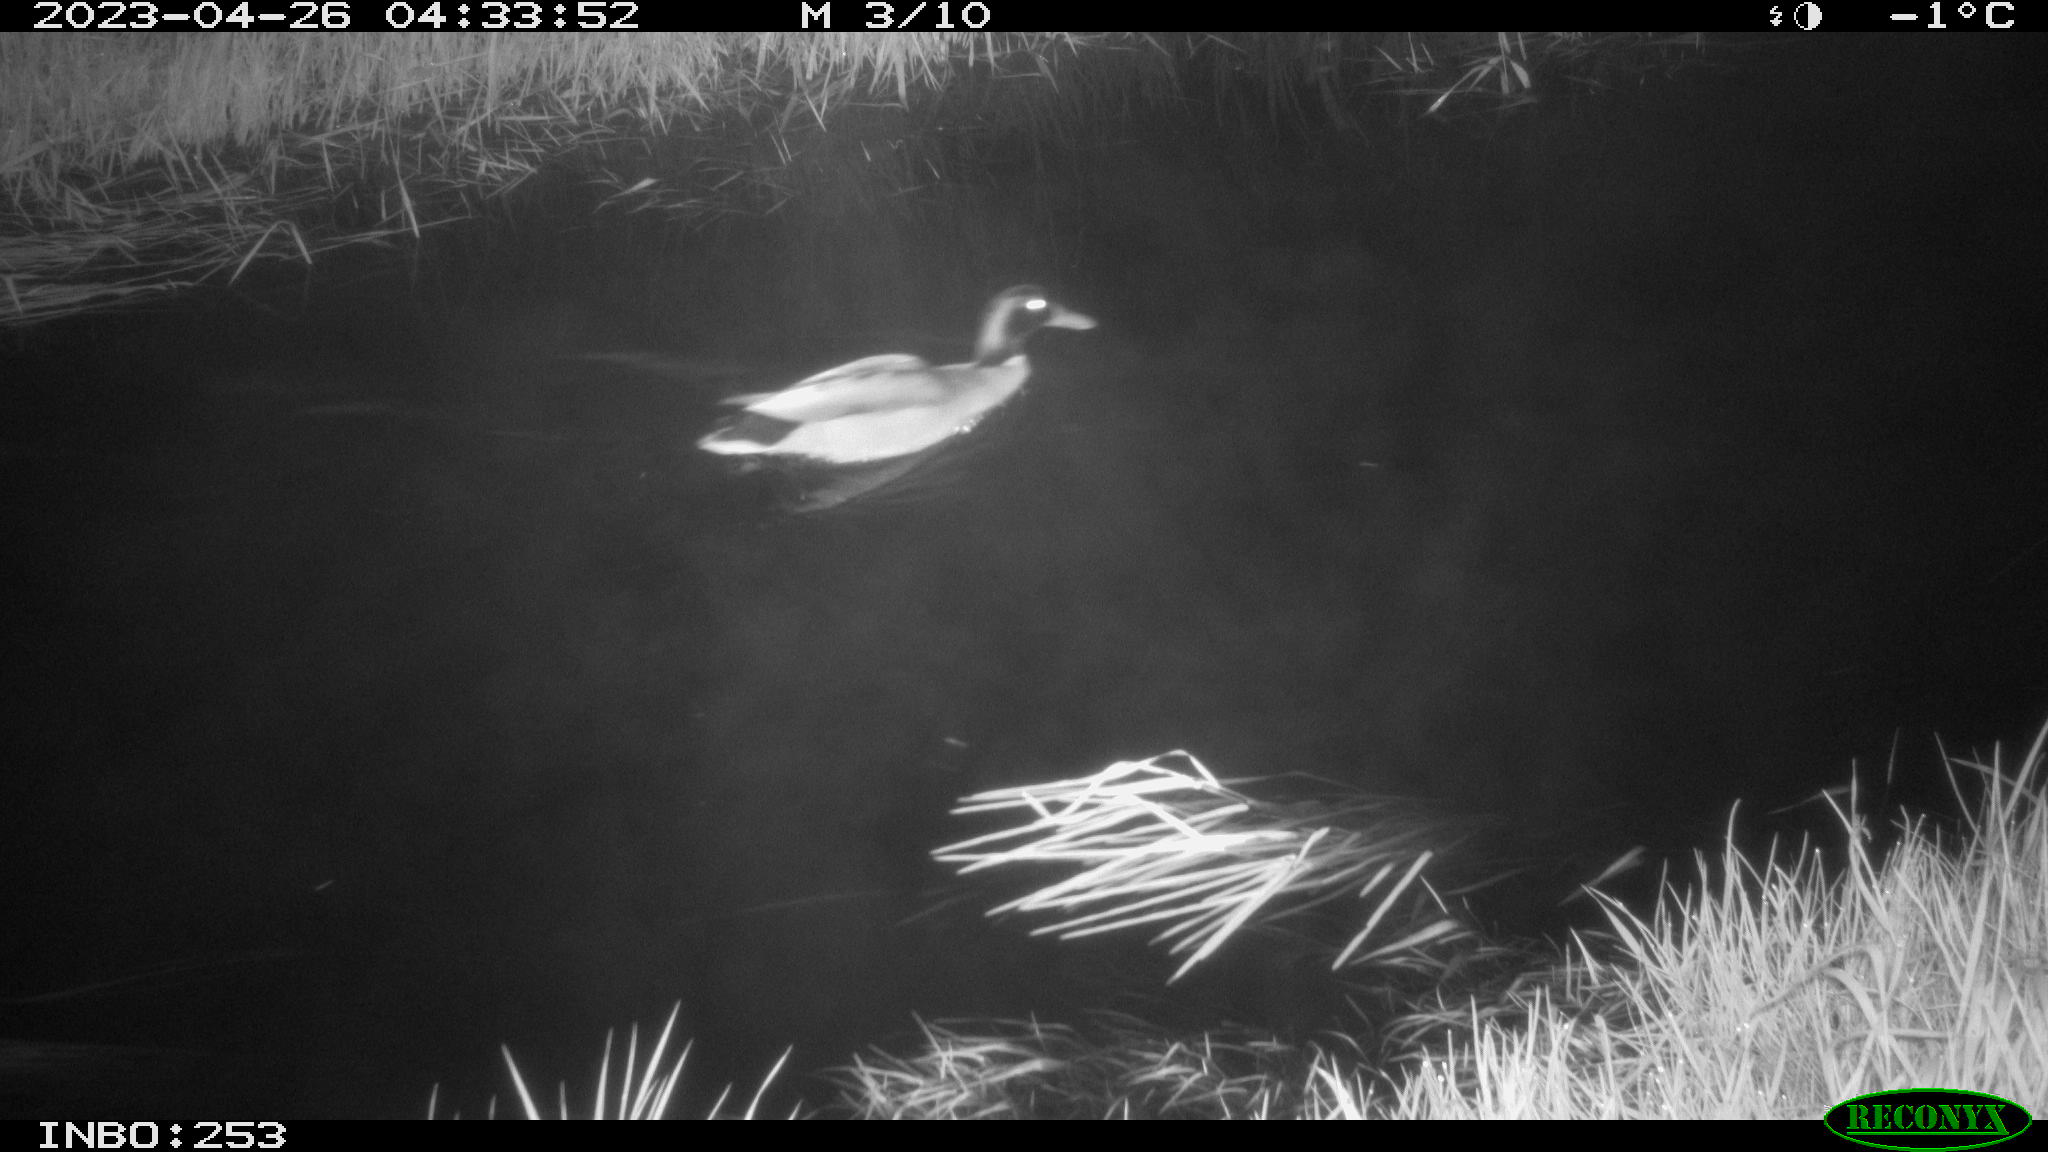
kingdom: Animalia
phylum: Chordata
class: Aves
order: Anseriformes
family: Anatidae
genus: Anas
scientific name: Anas
